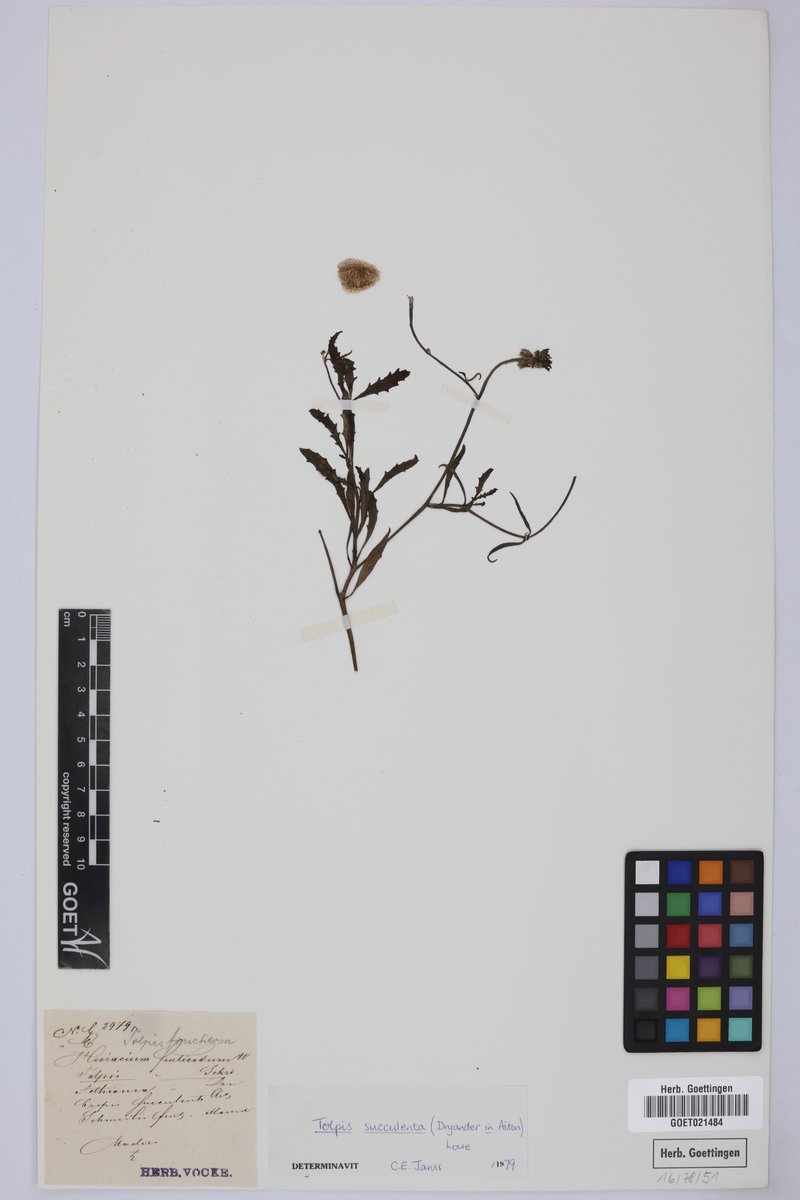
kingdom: Plantae
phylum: Tracheophyta
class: Magnoliopsida
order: Asterales
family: Asteraceae
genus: Tolpis
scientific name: Tolpis succulenta
